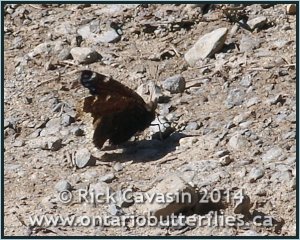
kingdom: Animalia
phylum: Arthropoda
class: Insecta
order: Lepidoptera
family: Nymphalidae
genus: Nymphalis
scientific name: Nymphalis antiopa
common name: Mourning Cloak
